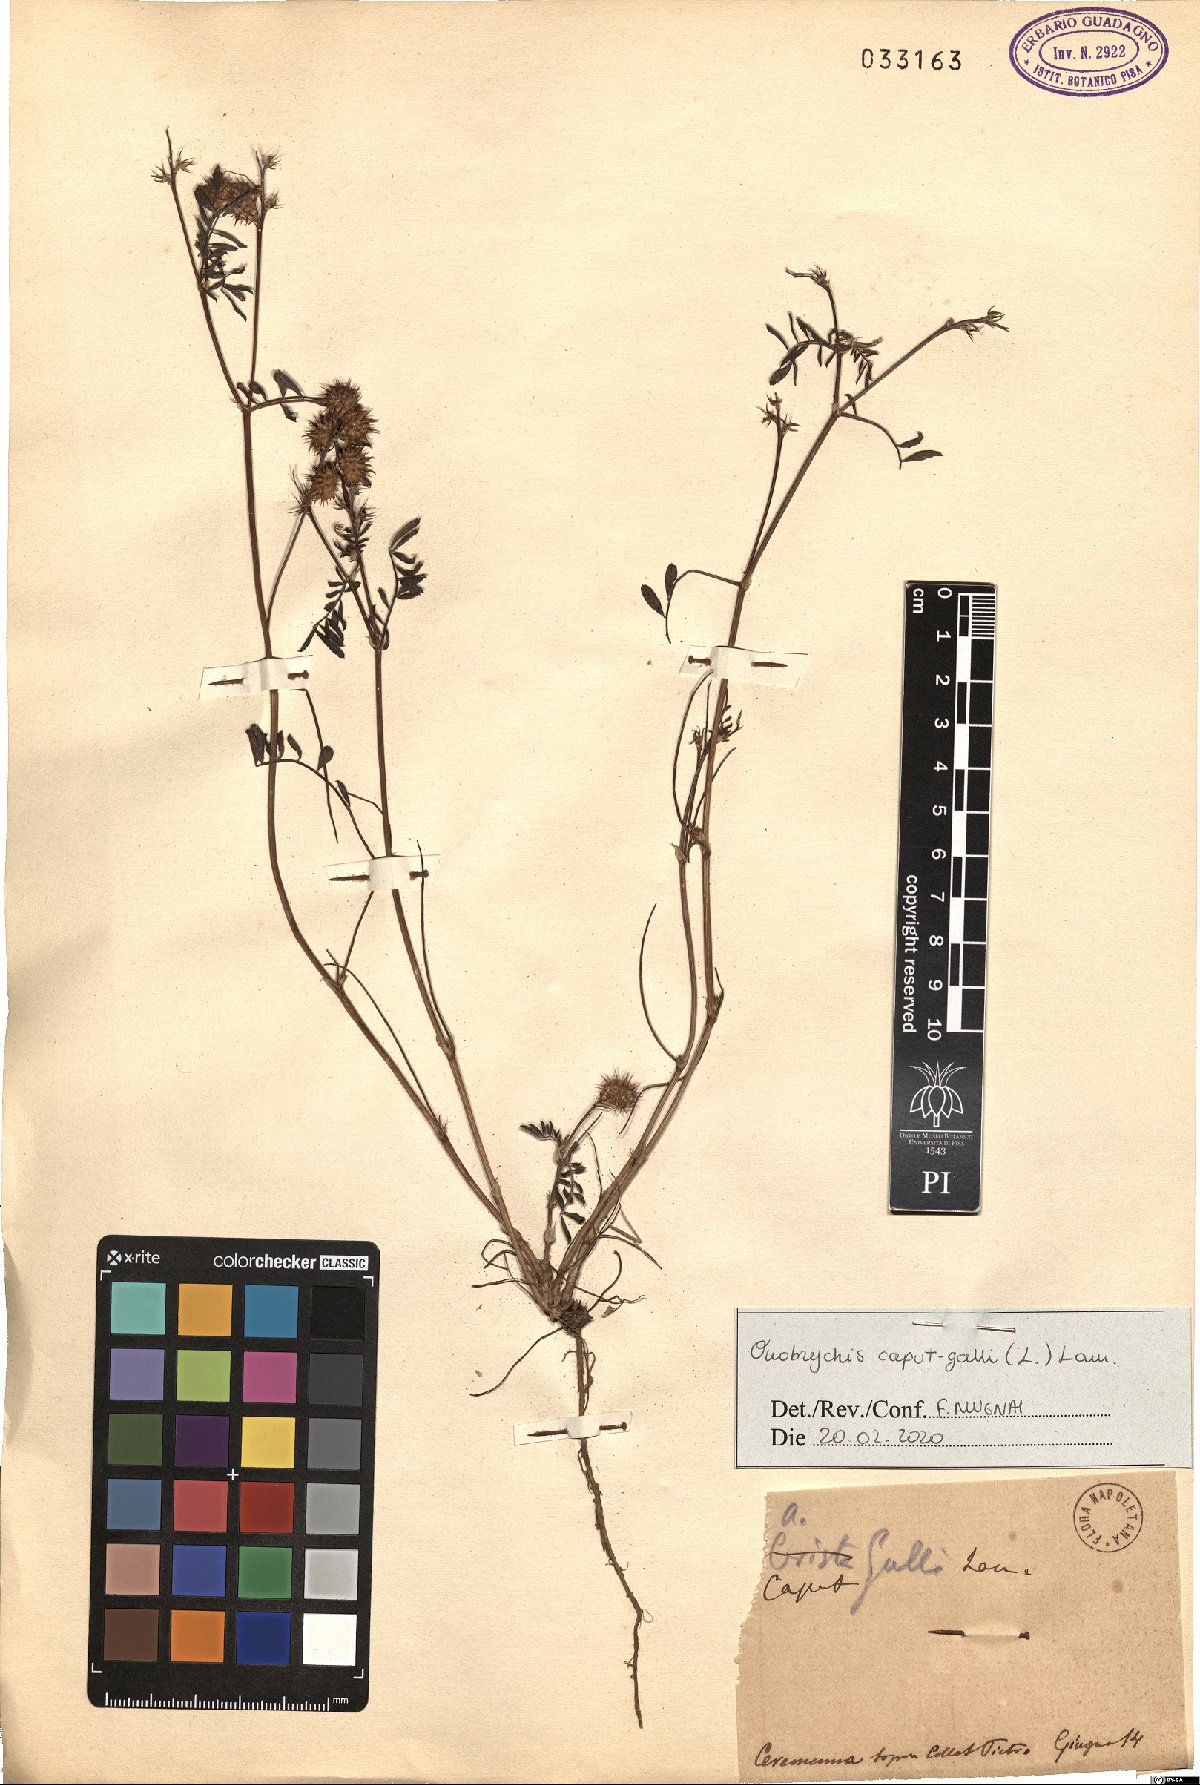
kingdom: Plantae
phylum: Tracheophyta
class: Magnoliopsida
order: Fabales
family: Fabaceae
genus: Onobrychis
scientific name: Onobrychis caput-galli
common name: Cockscomb sainfoin
